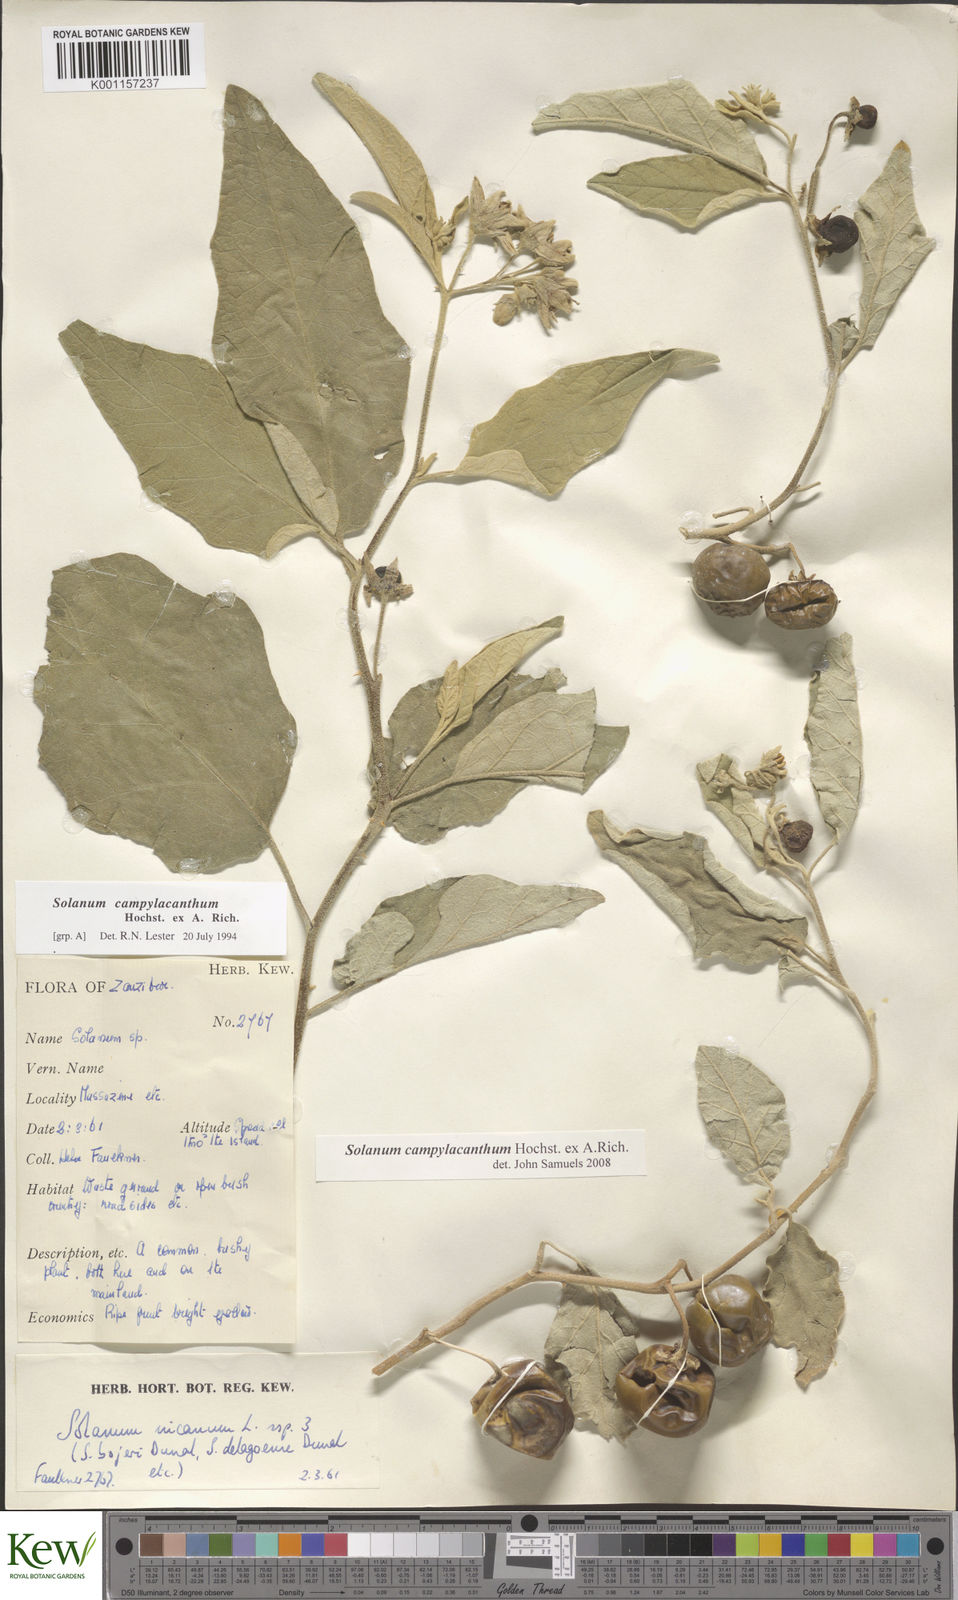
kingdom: Plantae
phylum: Tracheophyta
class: Magnoliopsida
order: Solanales
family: Solanaceae
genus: Solanum
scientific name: Solanum campylacanthum
